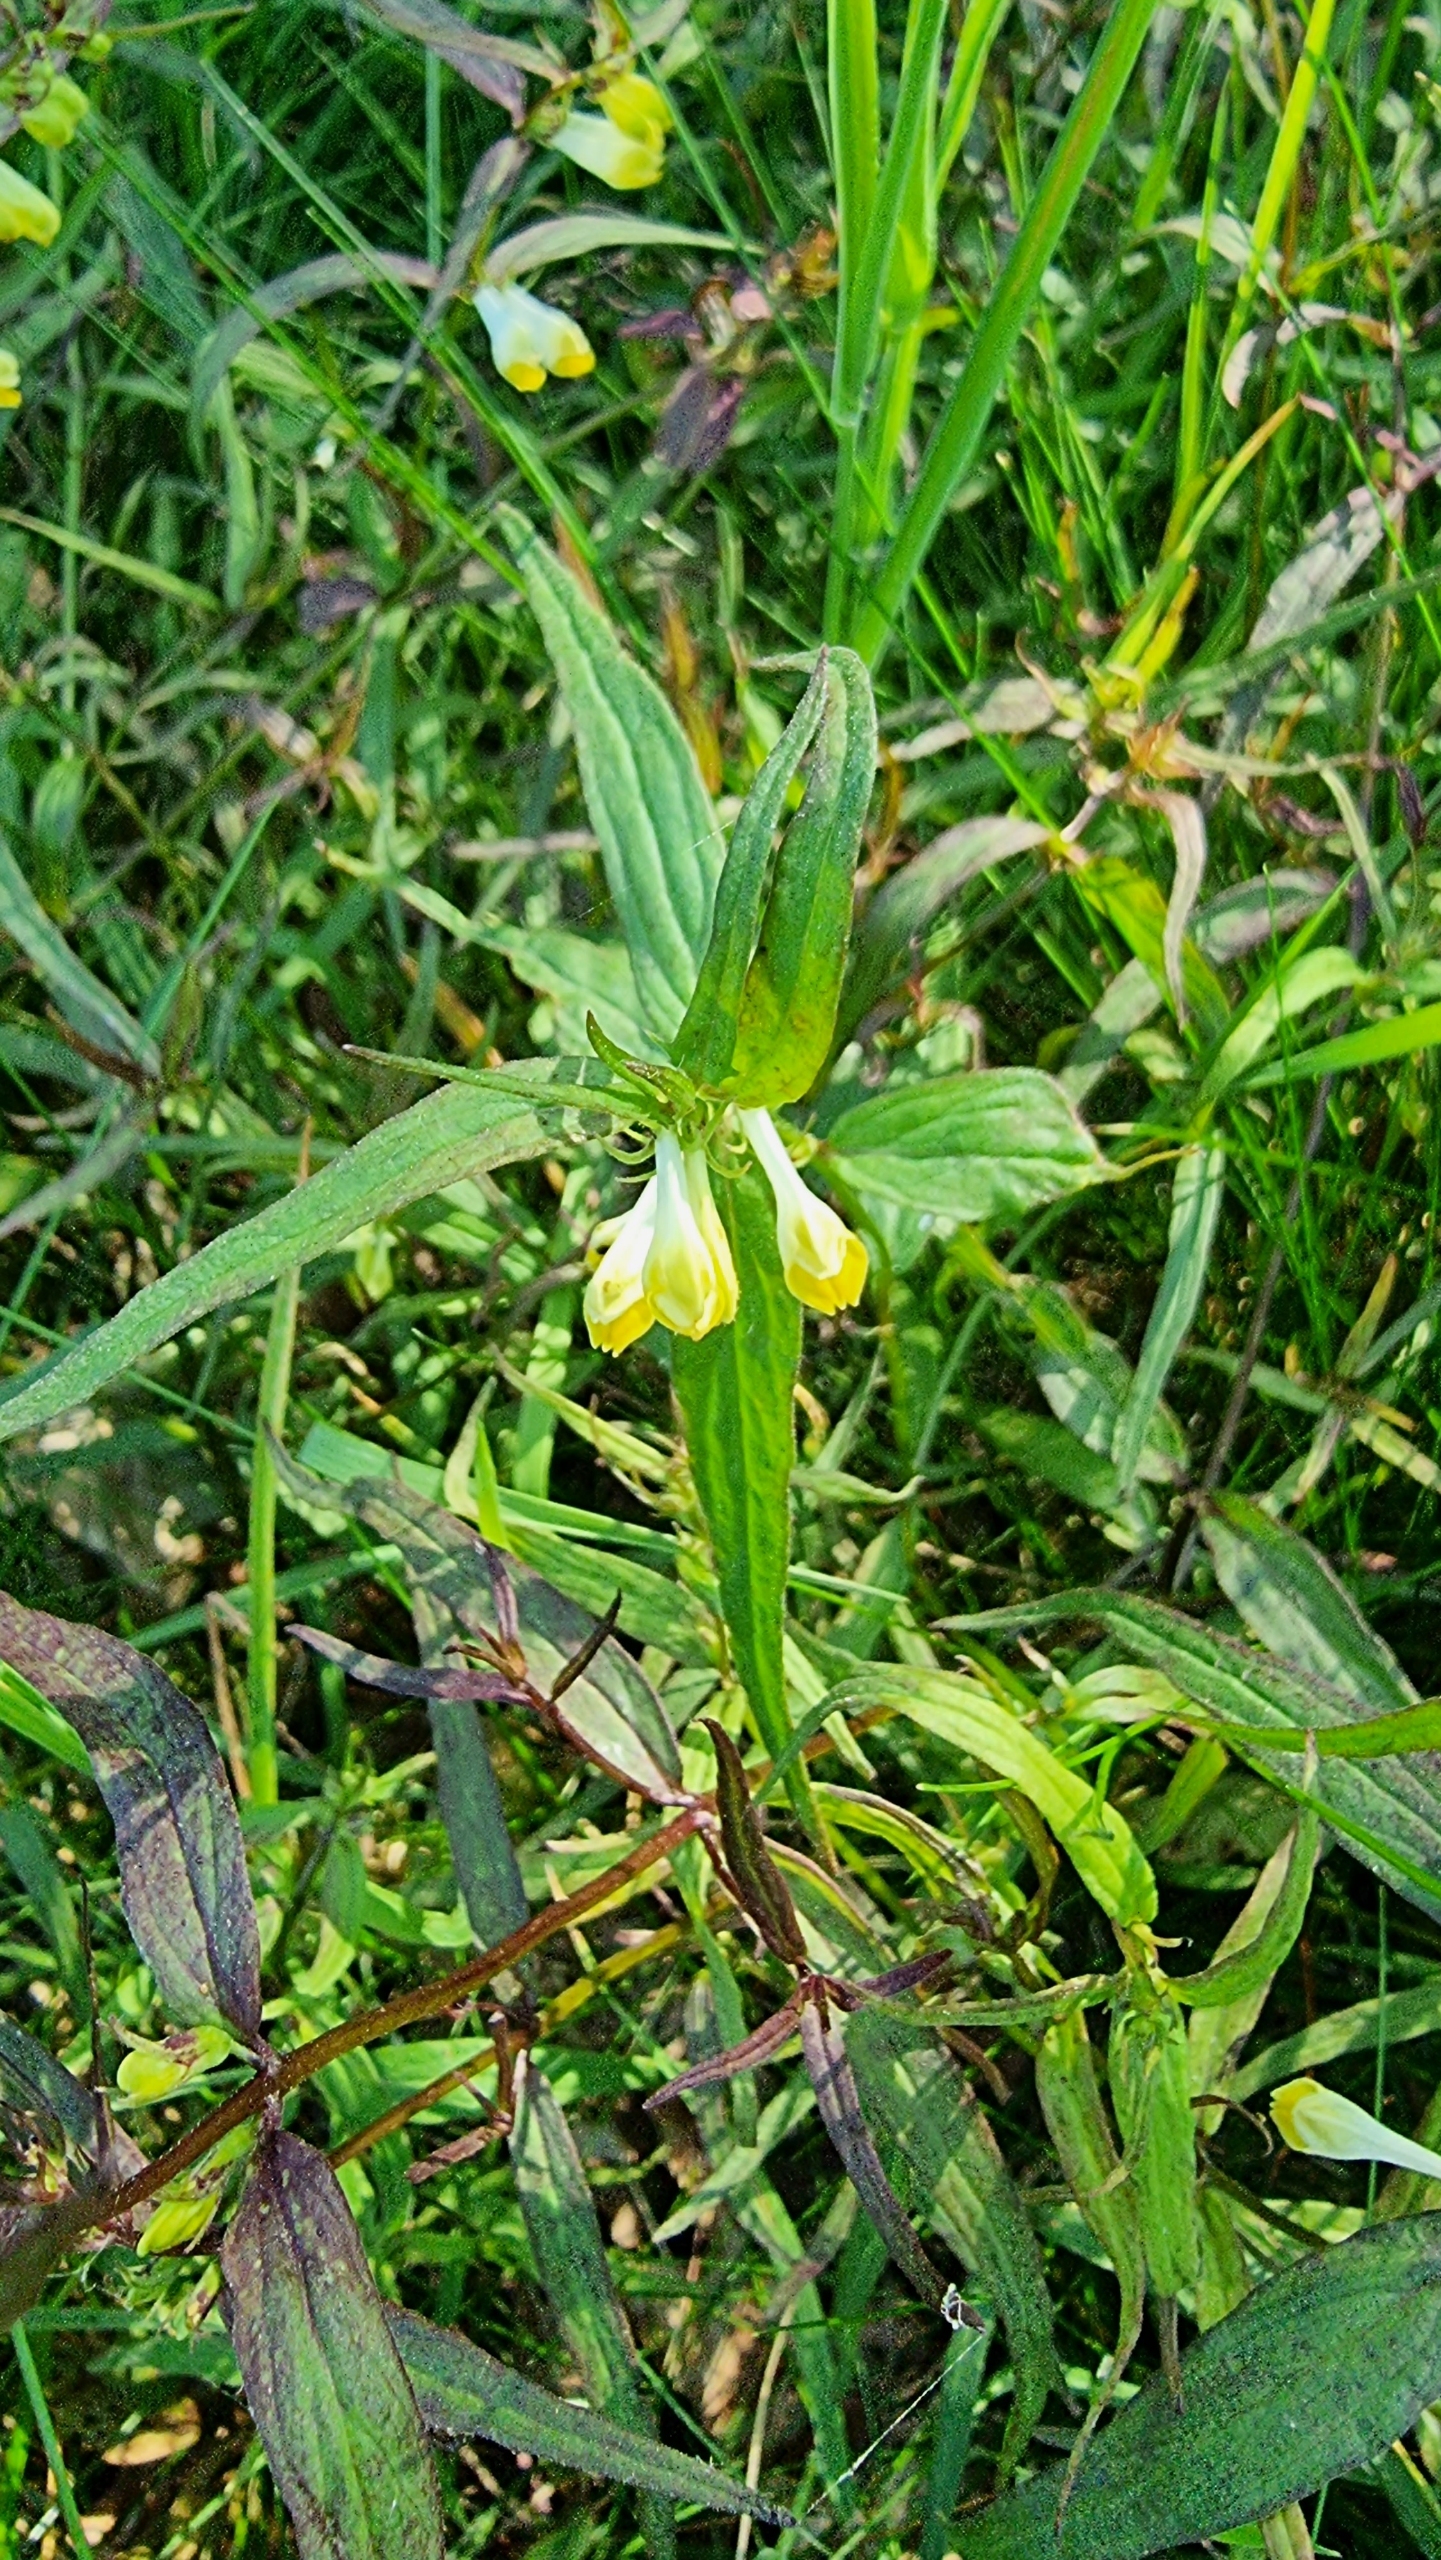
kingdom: Plantae
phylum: Tracheophyta
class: Magnoliopsida
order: Lamiales
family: Orobanchaceae
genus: Melampyrum
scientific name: Melampyrum pratense
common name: Almindelig kohvede
